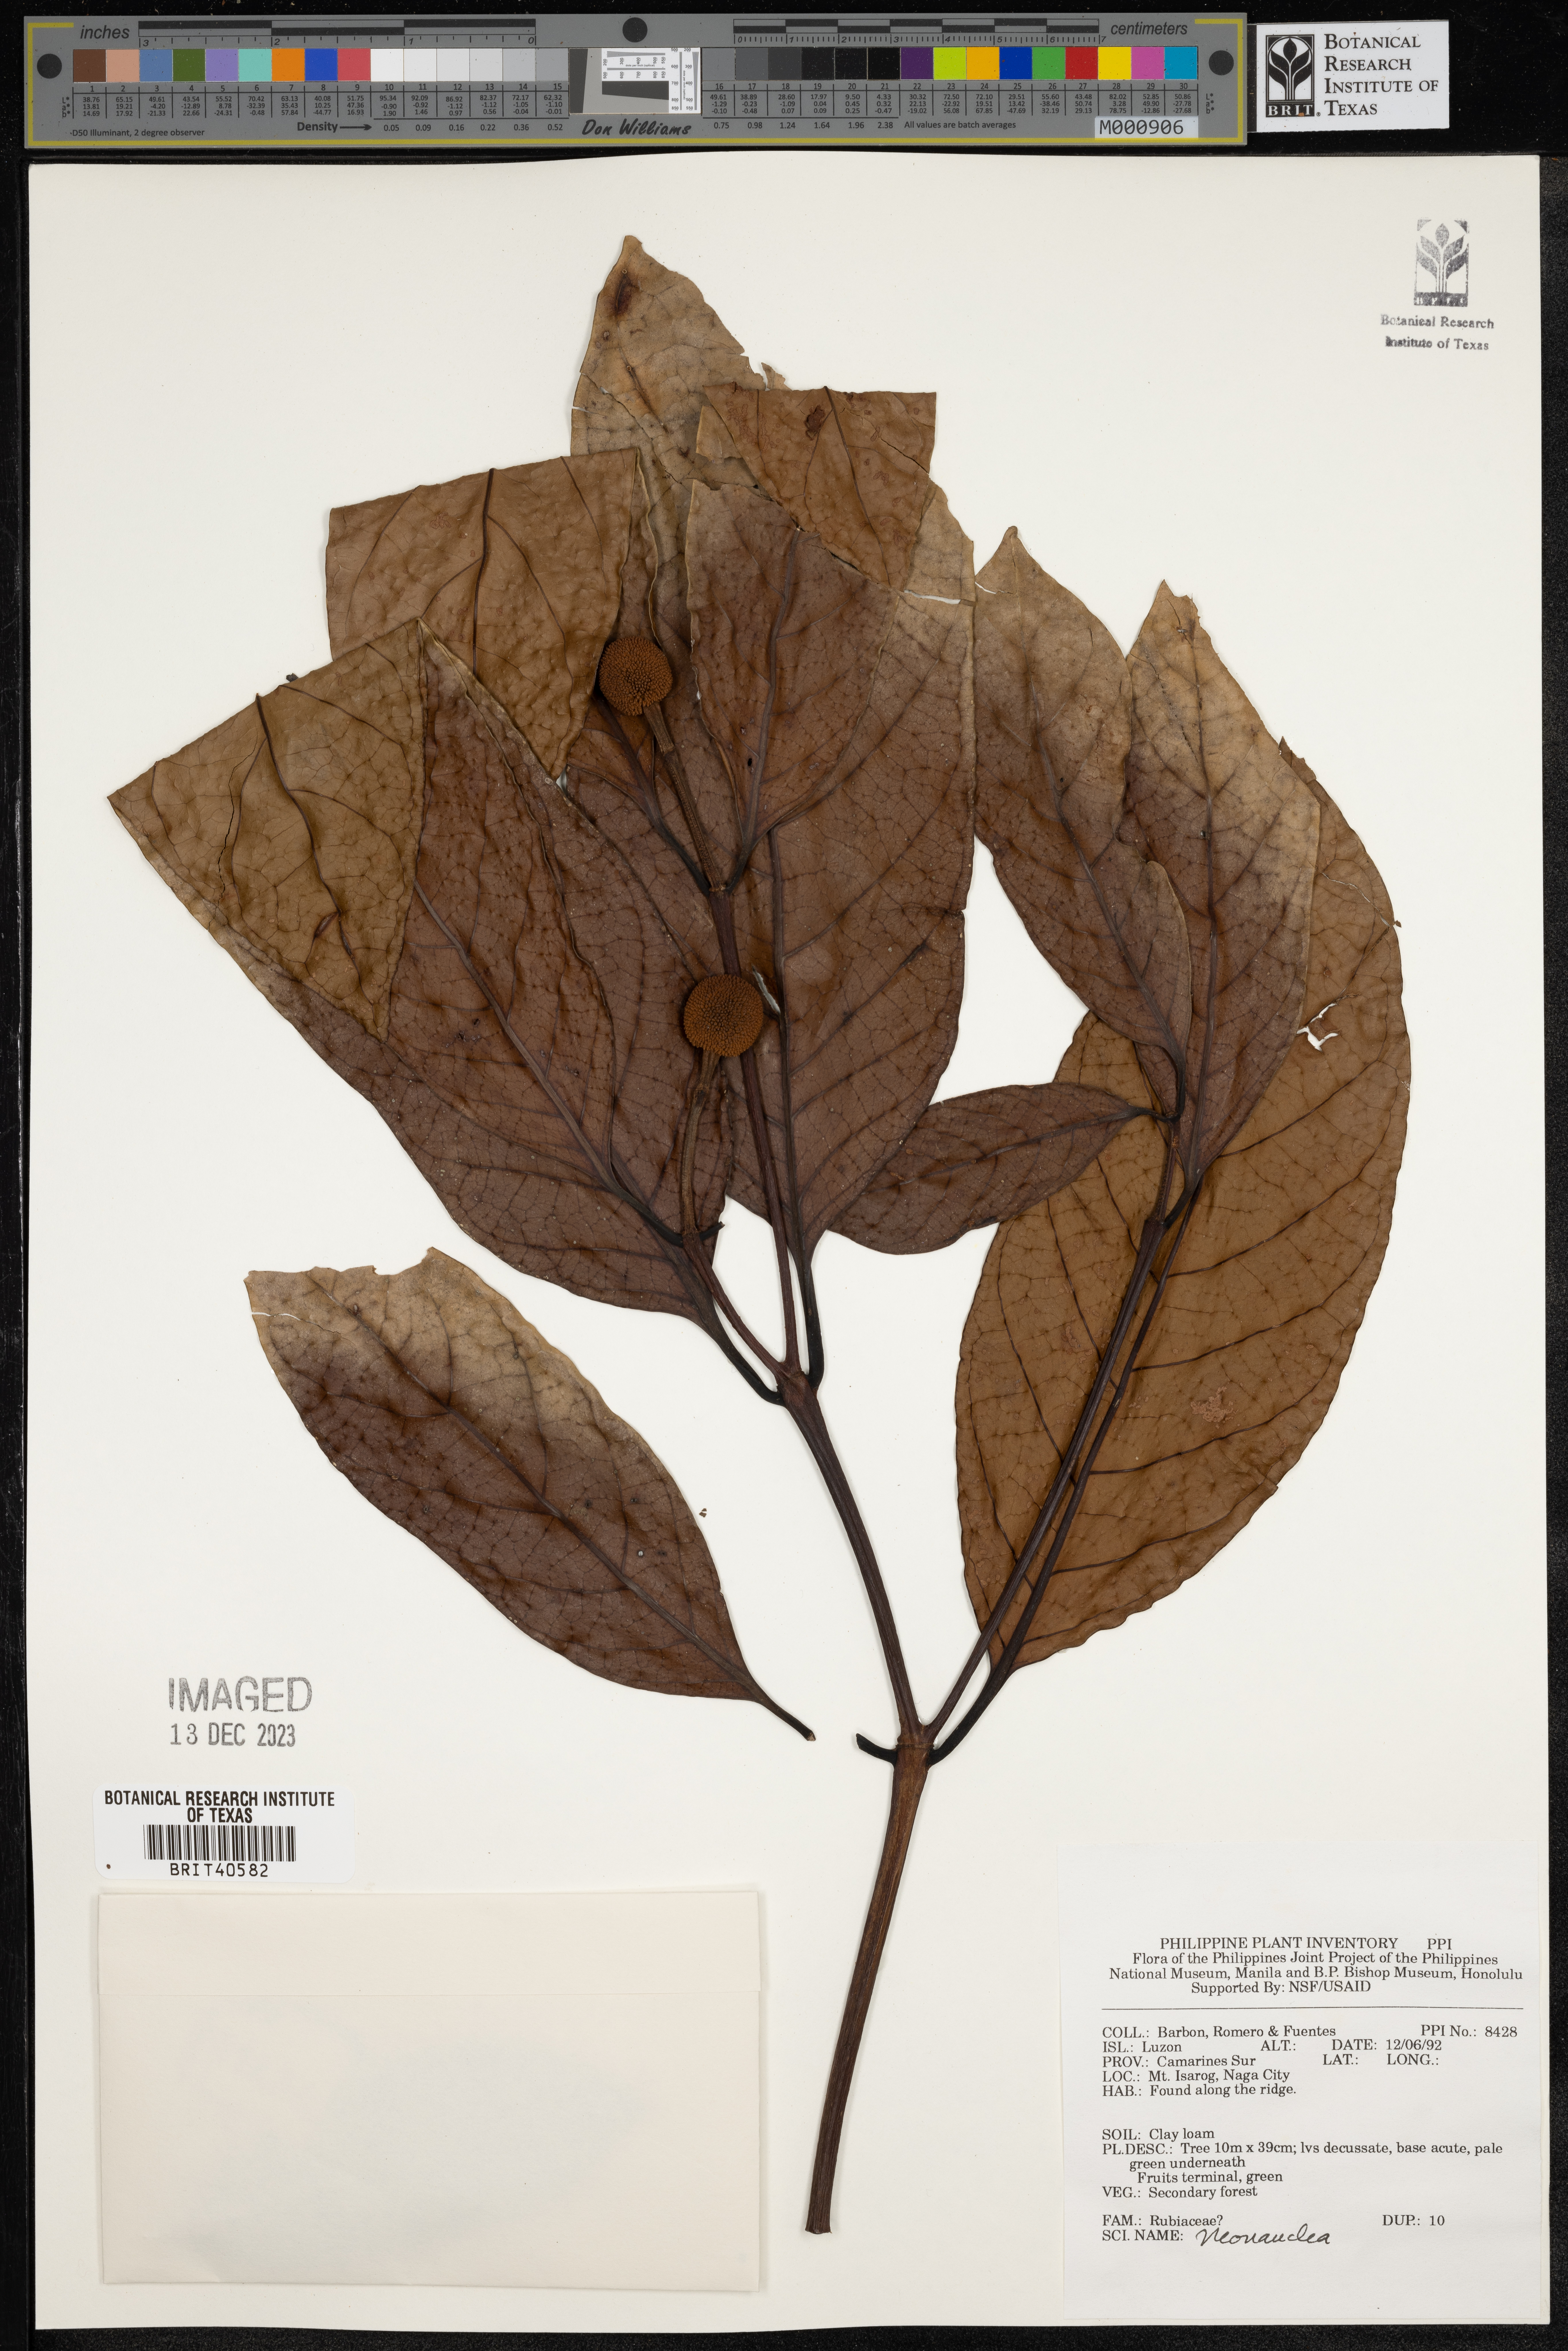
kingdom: Plantae
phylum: Tracheophyta
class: Magnoliopsida
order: Gentianales
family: Rubiaceae
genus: Neonauclea
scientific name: Neonauclea
